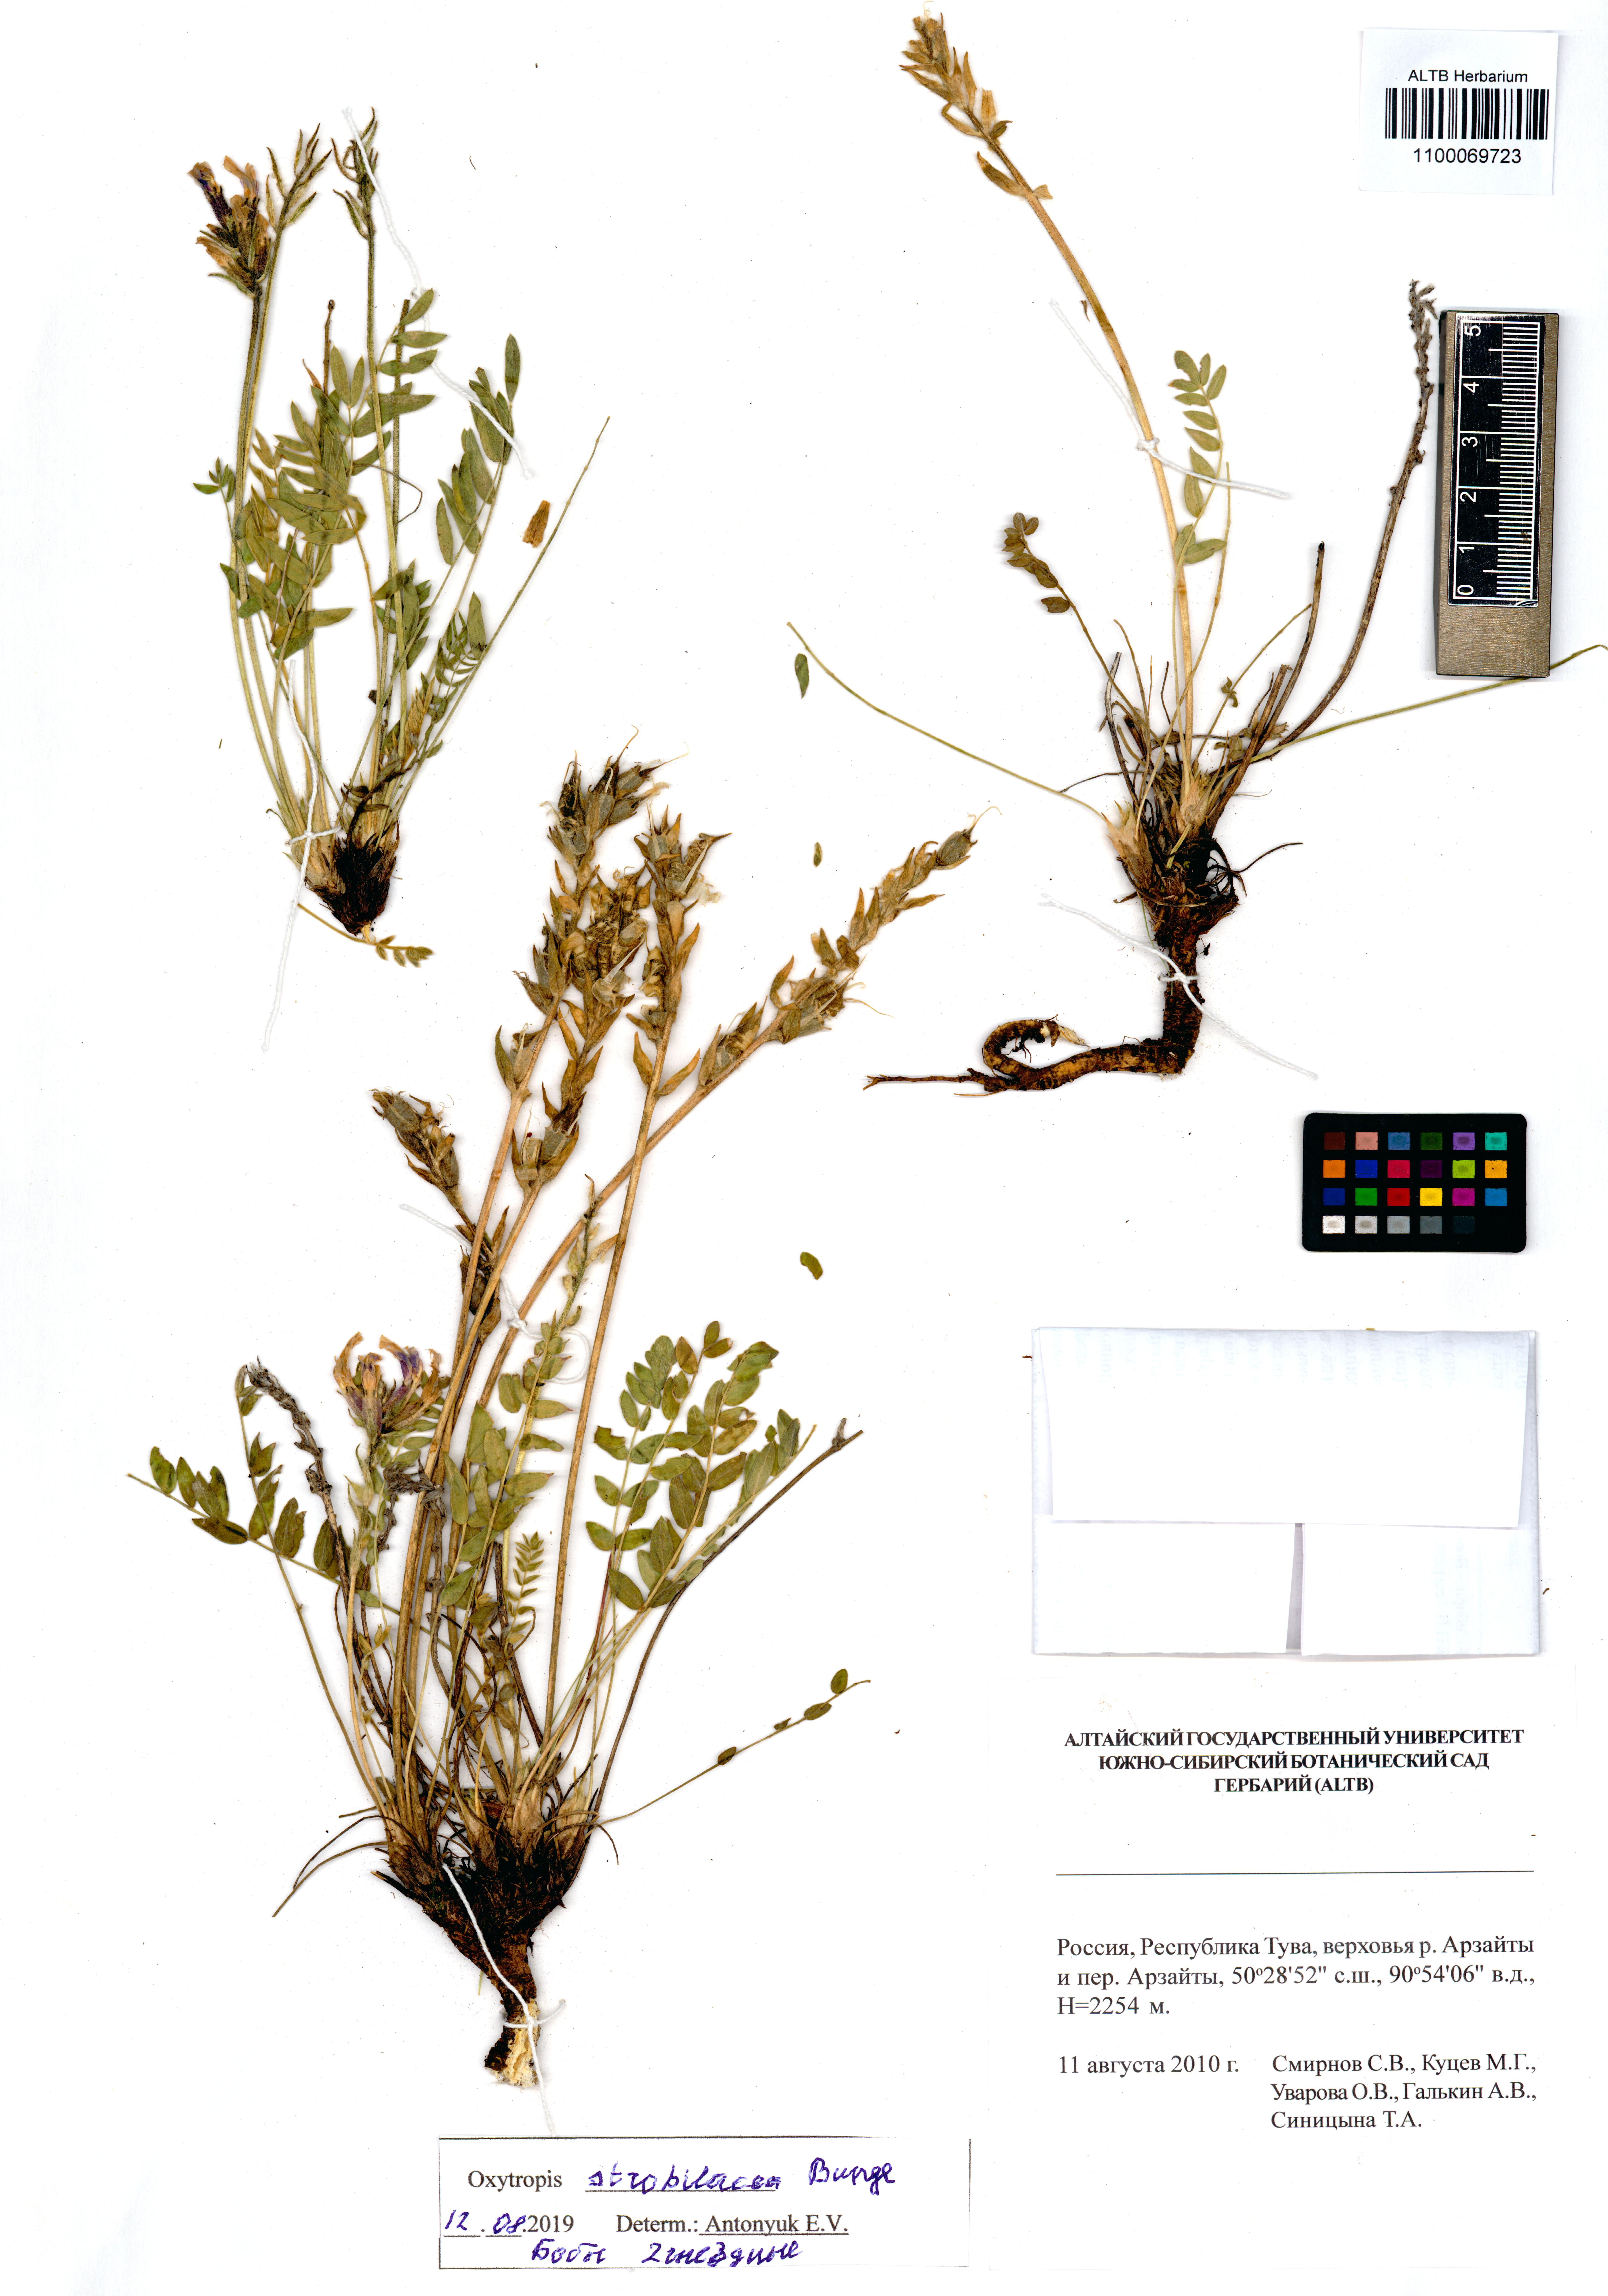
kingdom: Plantae
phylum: Tracheophyta
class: Magnoliopsida
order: Fabales
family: Fabaceae
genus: Oxytropis
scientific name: Oxytropis strobilacea
